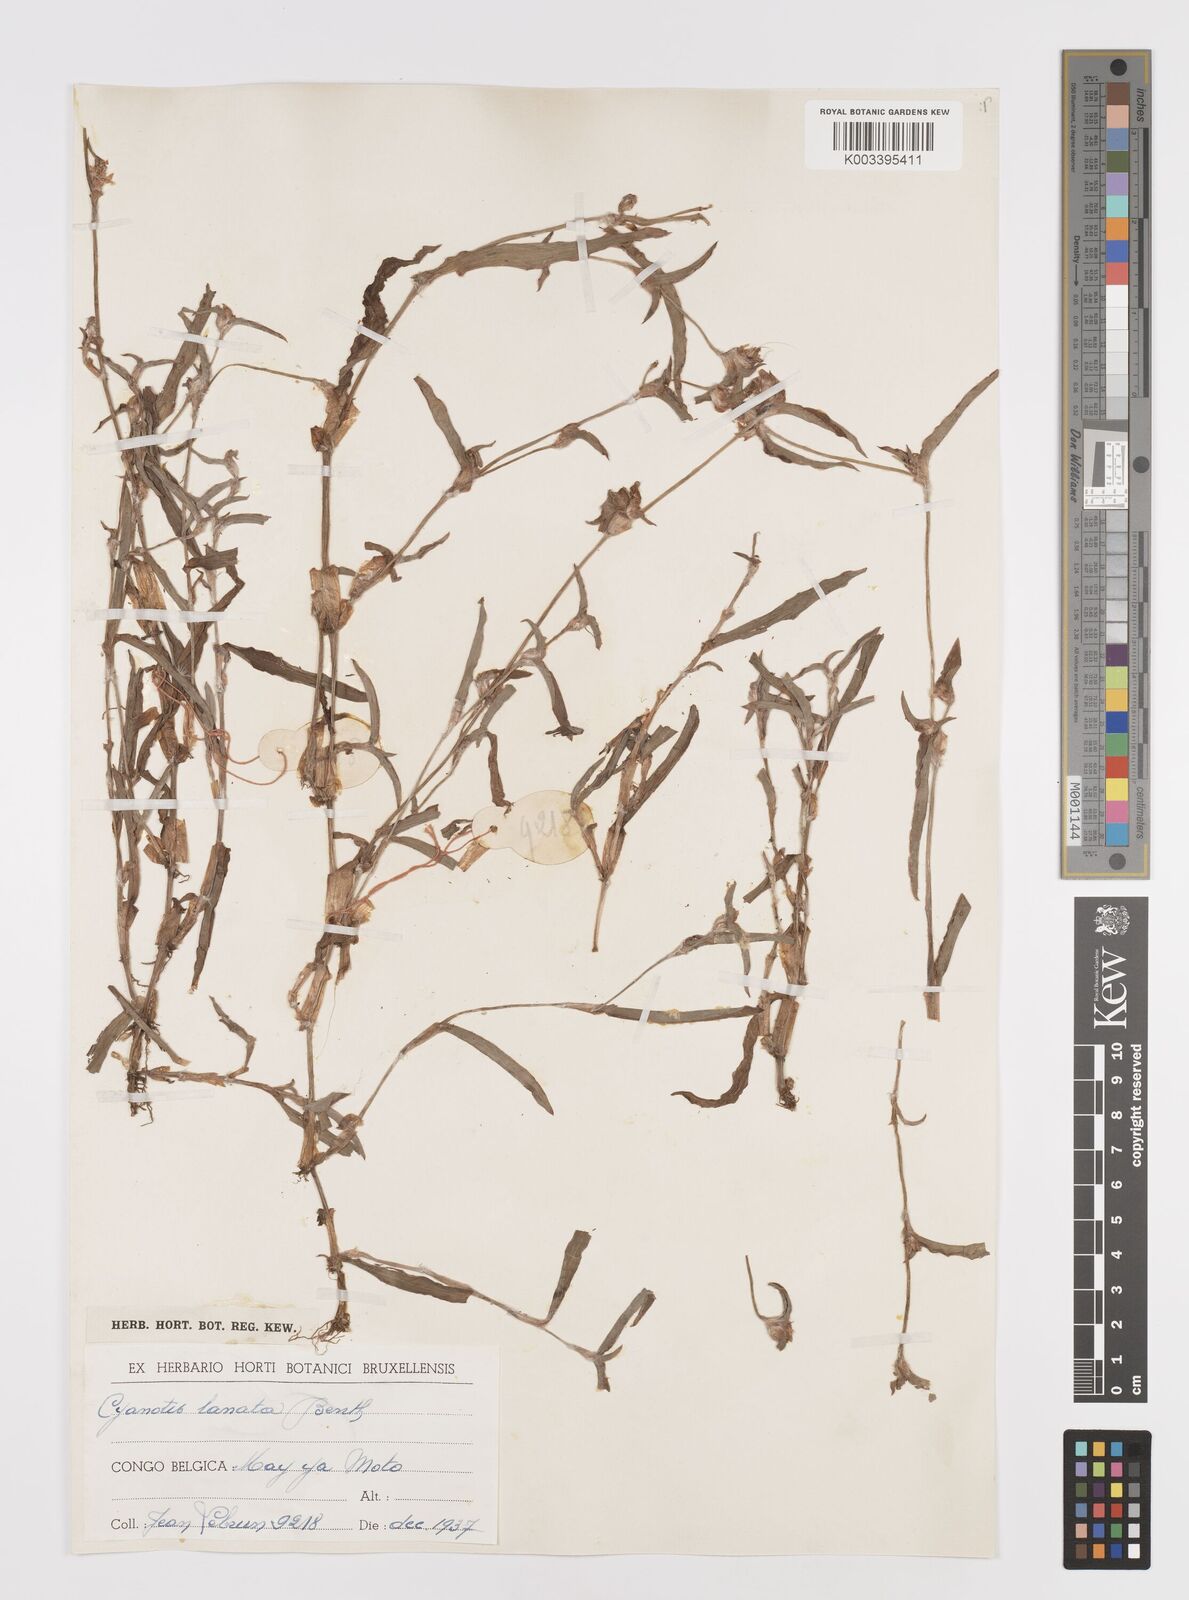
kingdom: Plantae
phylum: Tracheophyta
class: Liliopsida
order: Commelinales
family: Commelinaceae
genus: Cyanotis
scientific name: Cyanotis lanata
